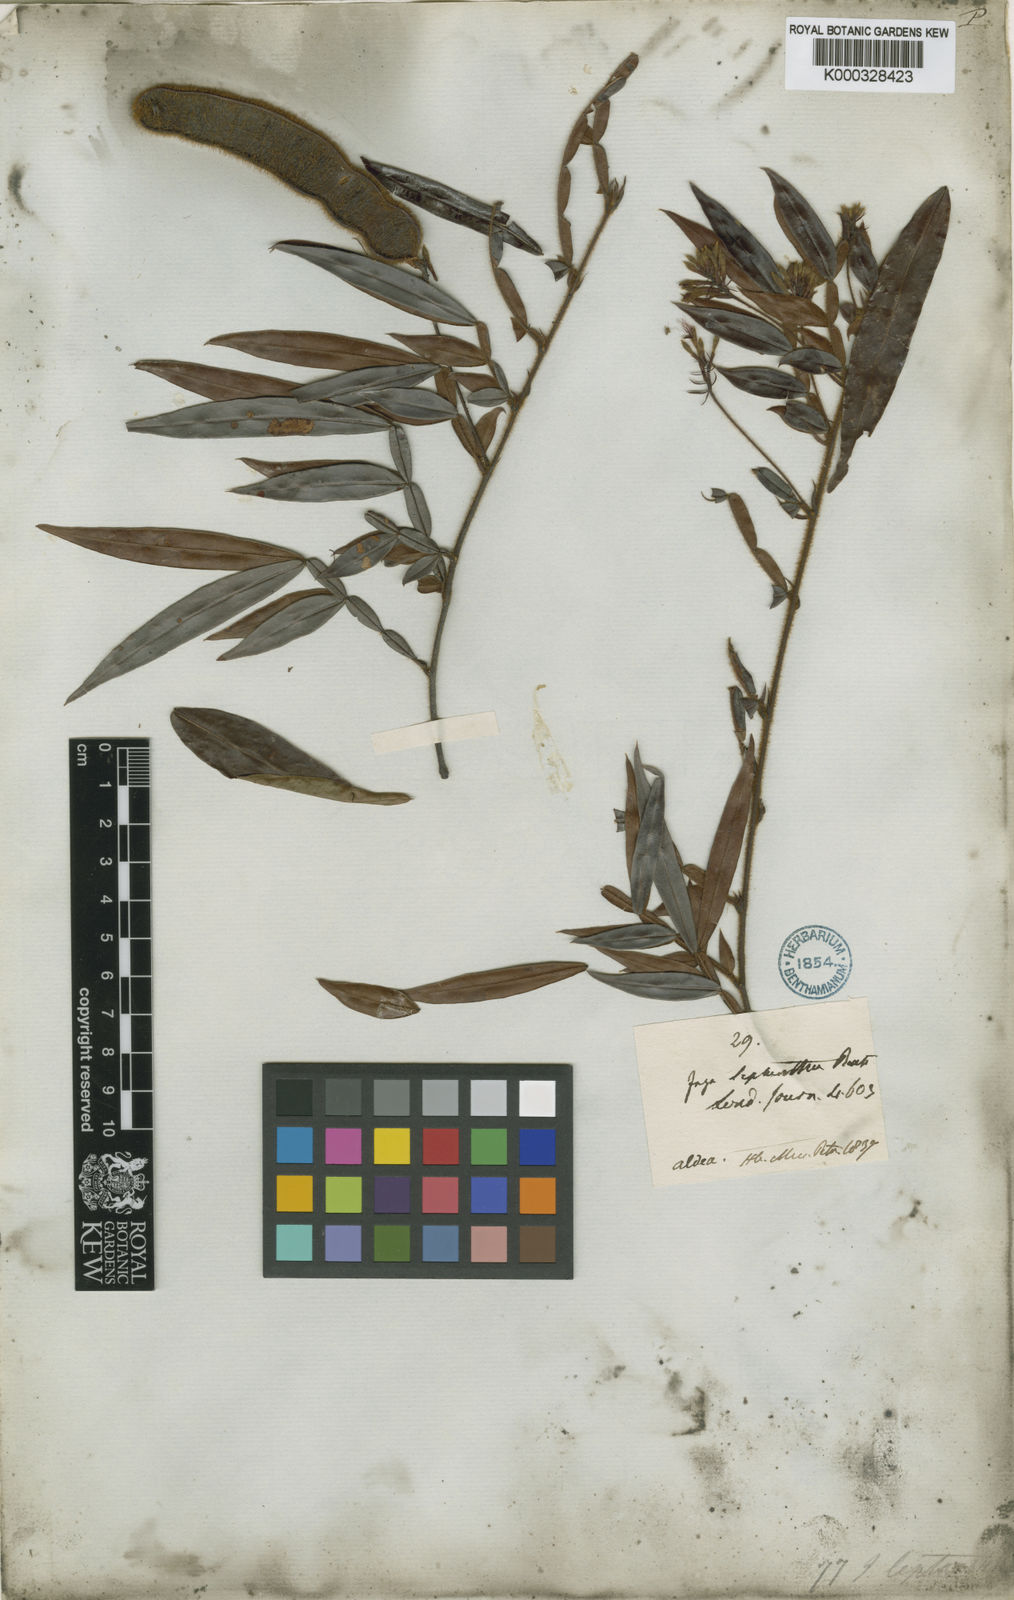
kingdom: Plantae
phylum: Tracheophyta
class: Magnoliopsida
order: Fabales
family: Fabaceae
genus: Inga
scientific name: Inga leptantha
